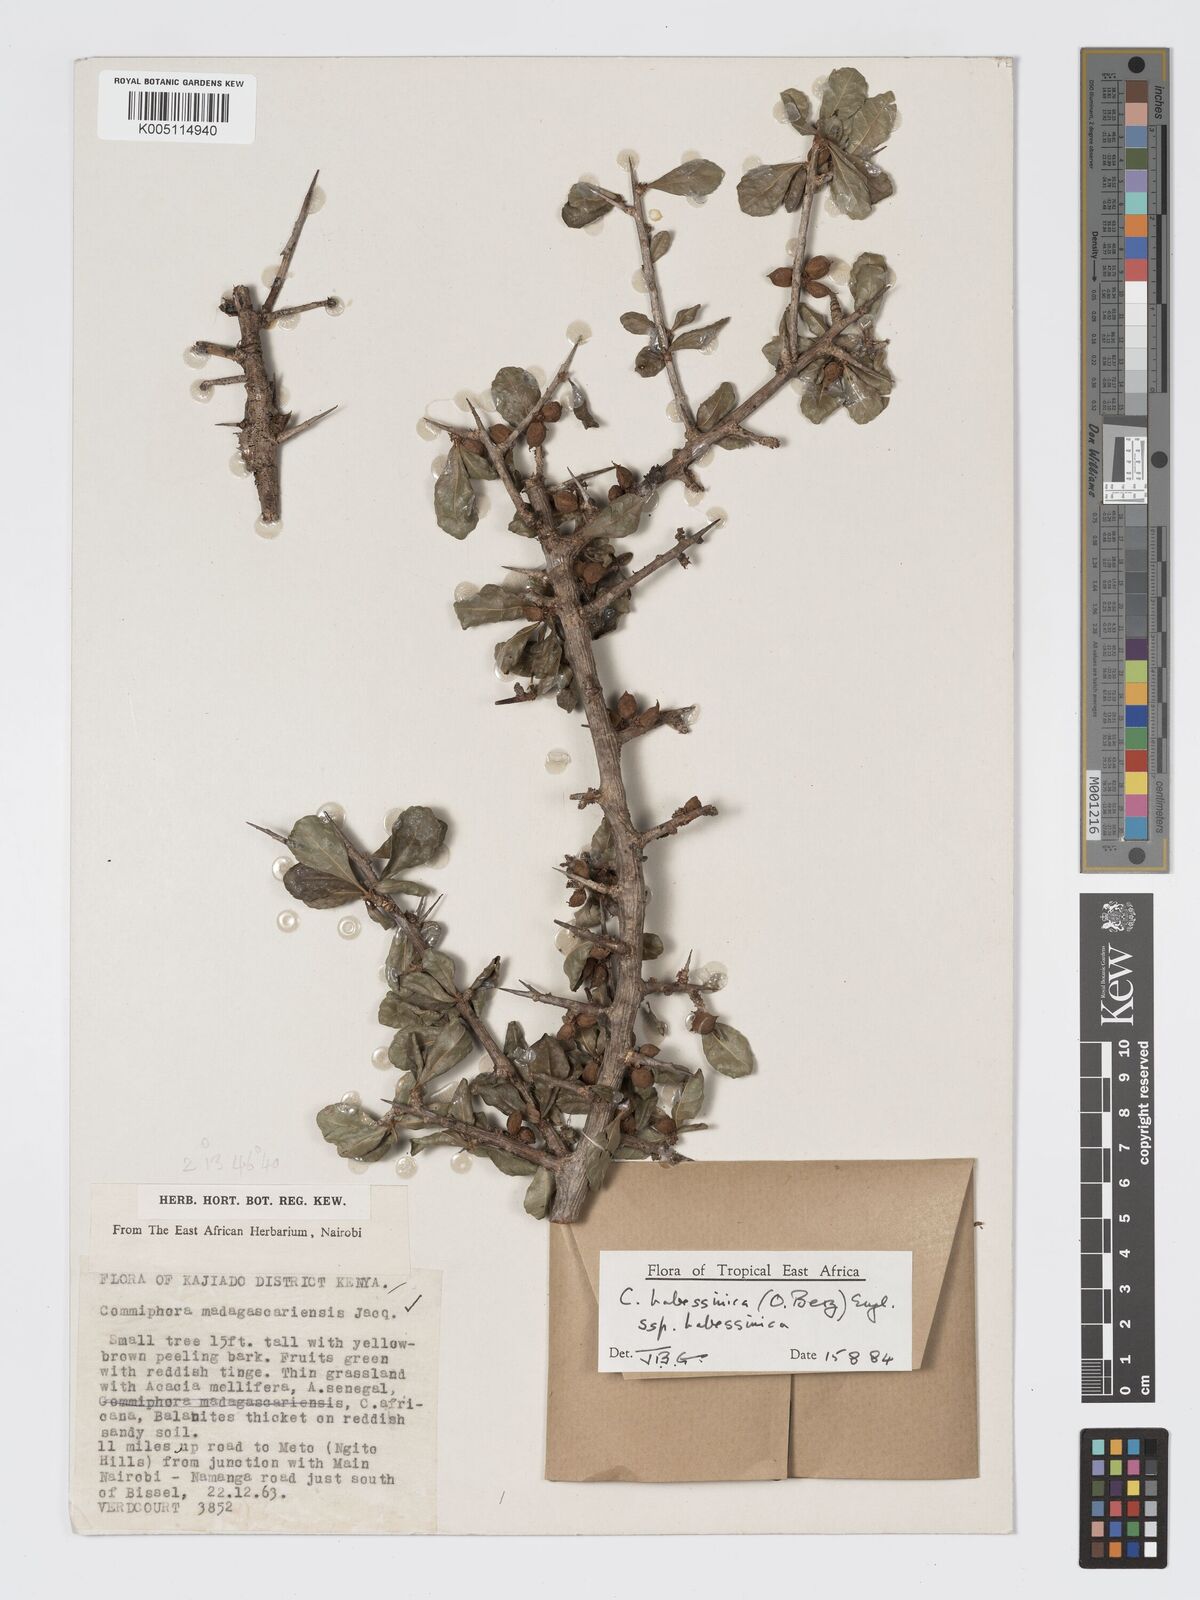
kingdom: Plantae
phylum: Tracheophyta
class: Magnoliopsida
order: Sapindales
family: Burseraceae
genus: Commiphora
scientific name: Commiphora kua
